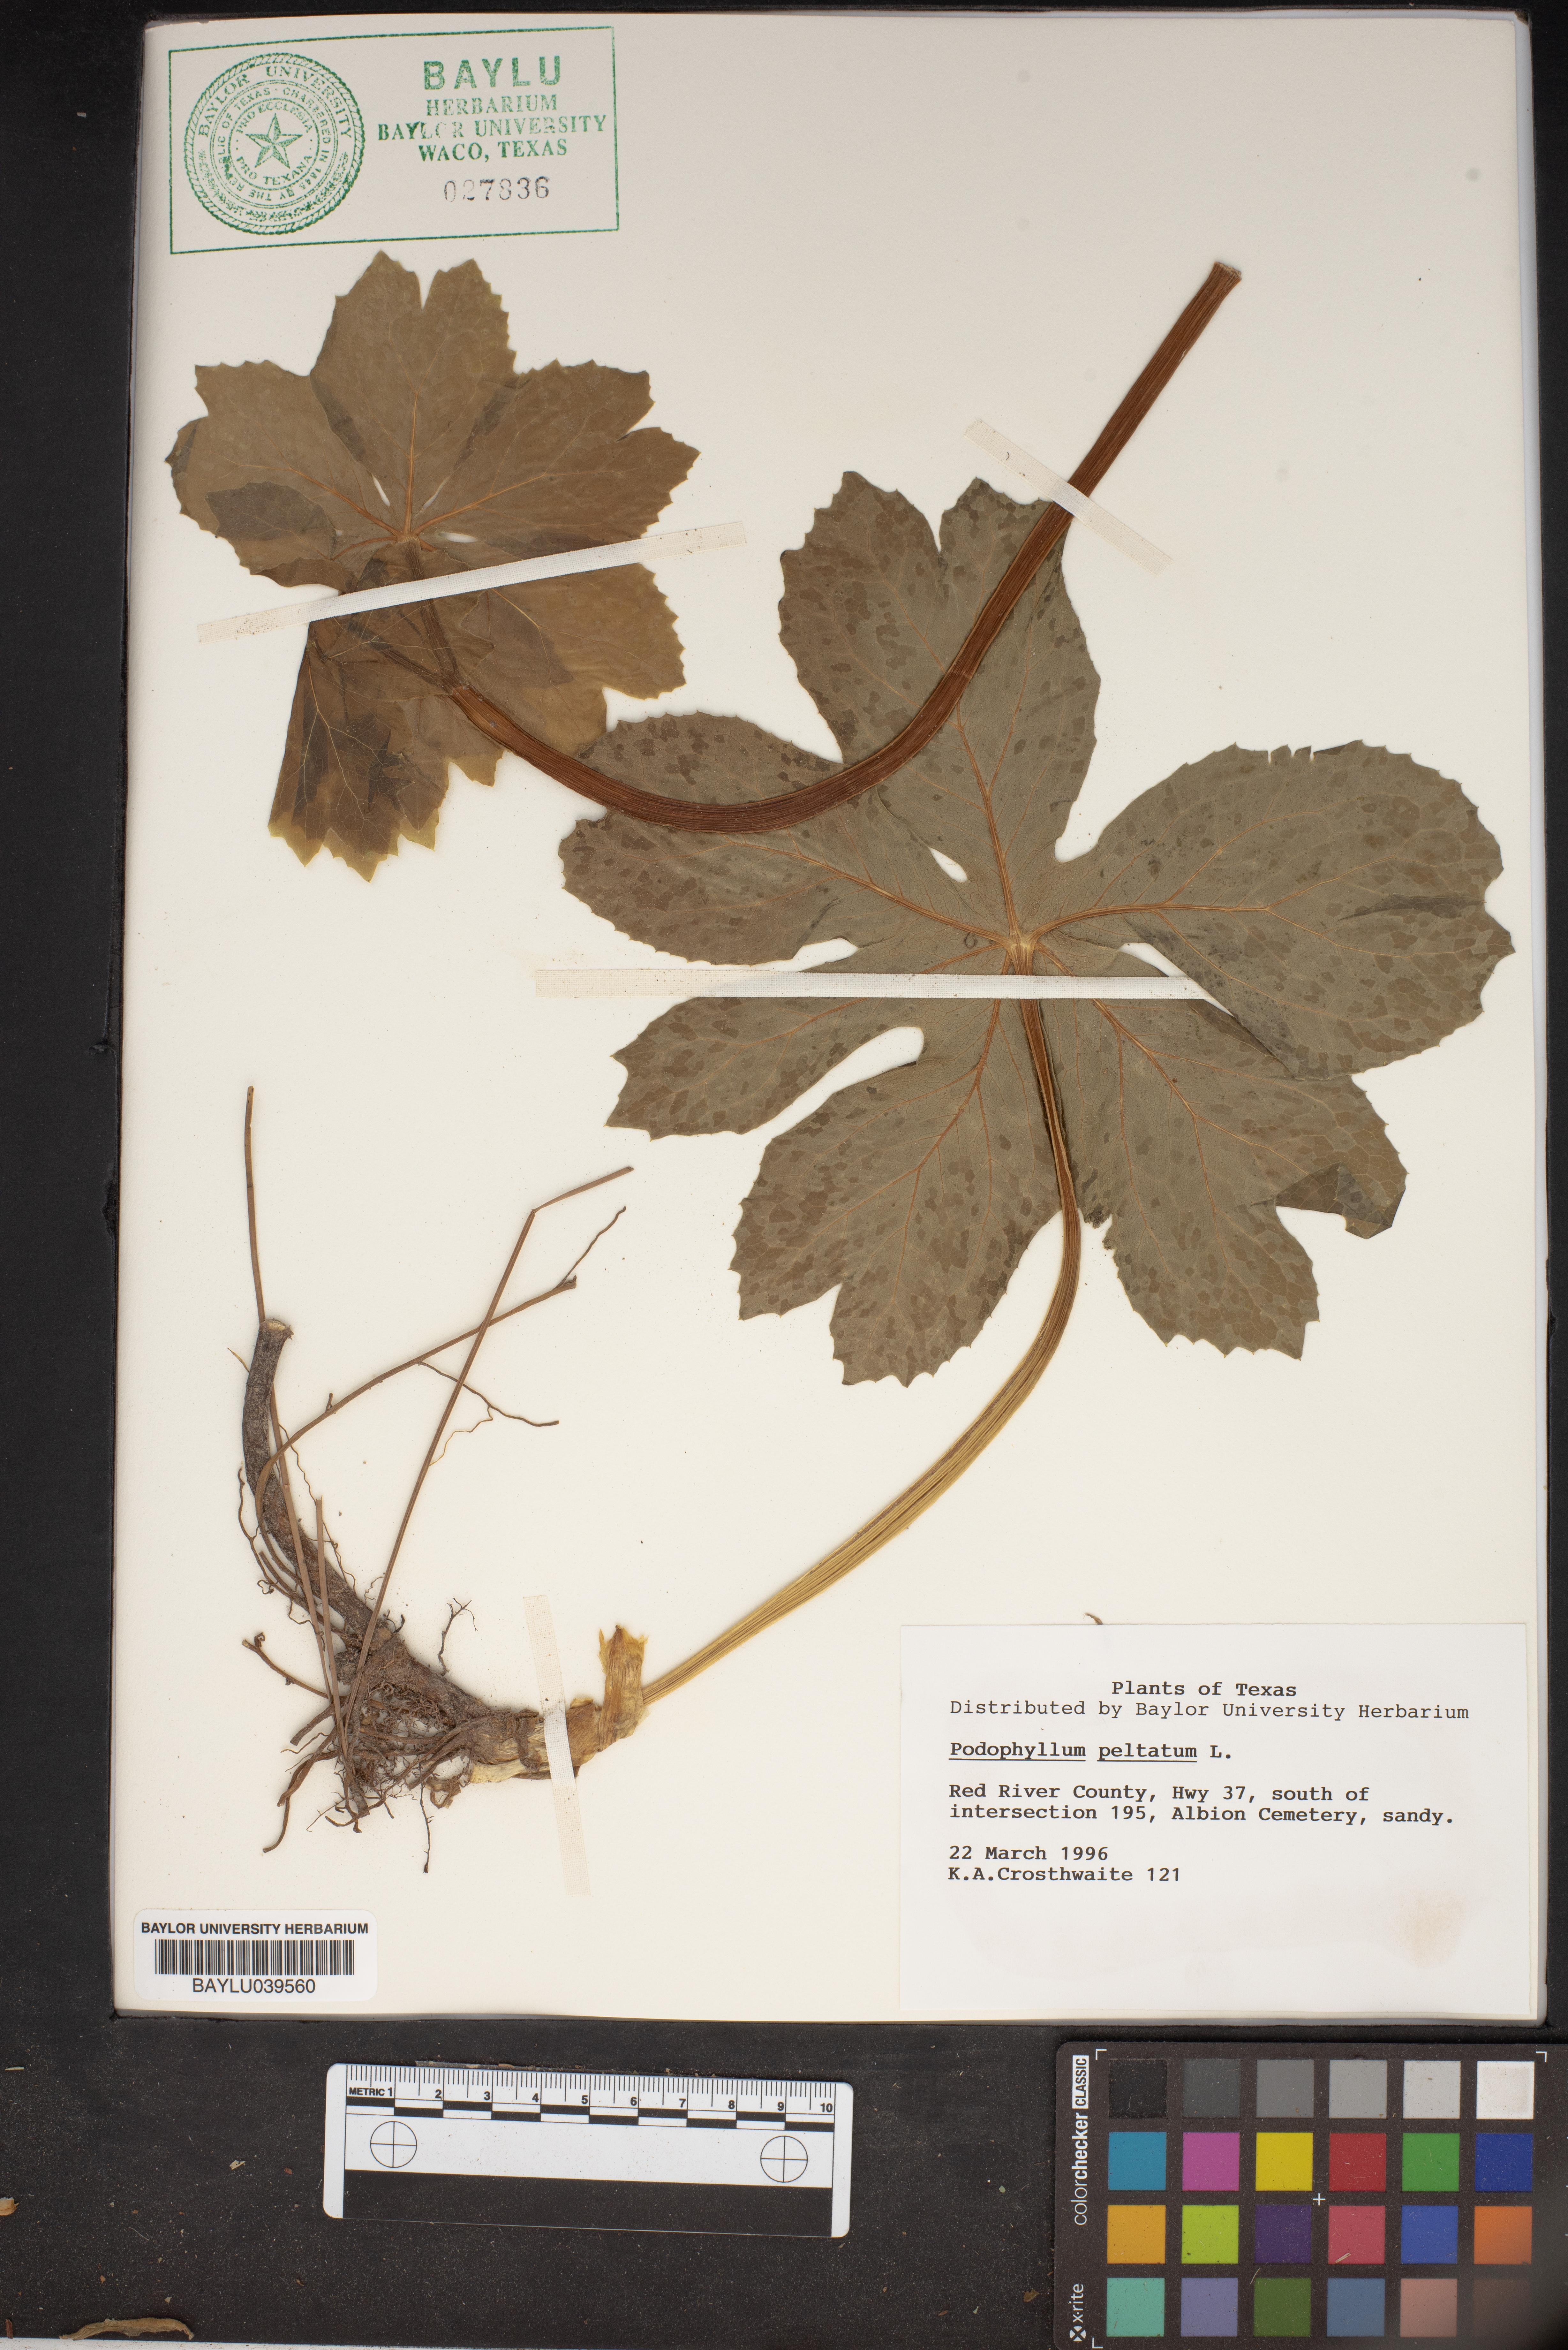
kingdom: Plantae
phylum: Tracheophyta
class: Magnoliopsida
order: Ranunculales
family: Berberidaceae
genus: Podophyllum
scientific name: Podophyllum peltatum
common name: Wild mandrake
